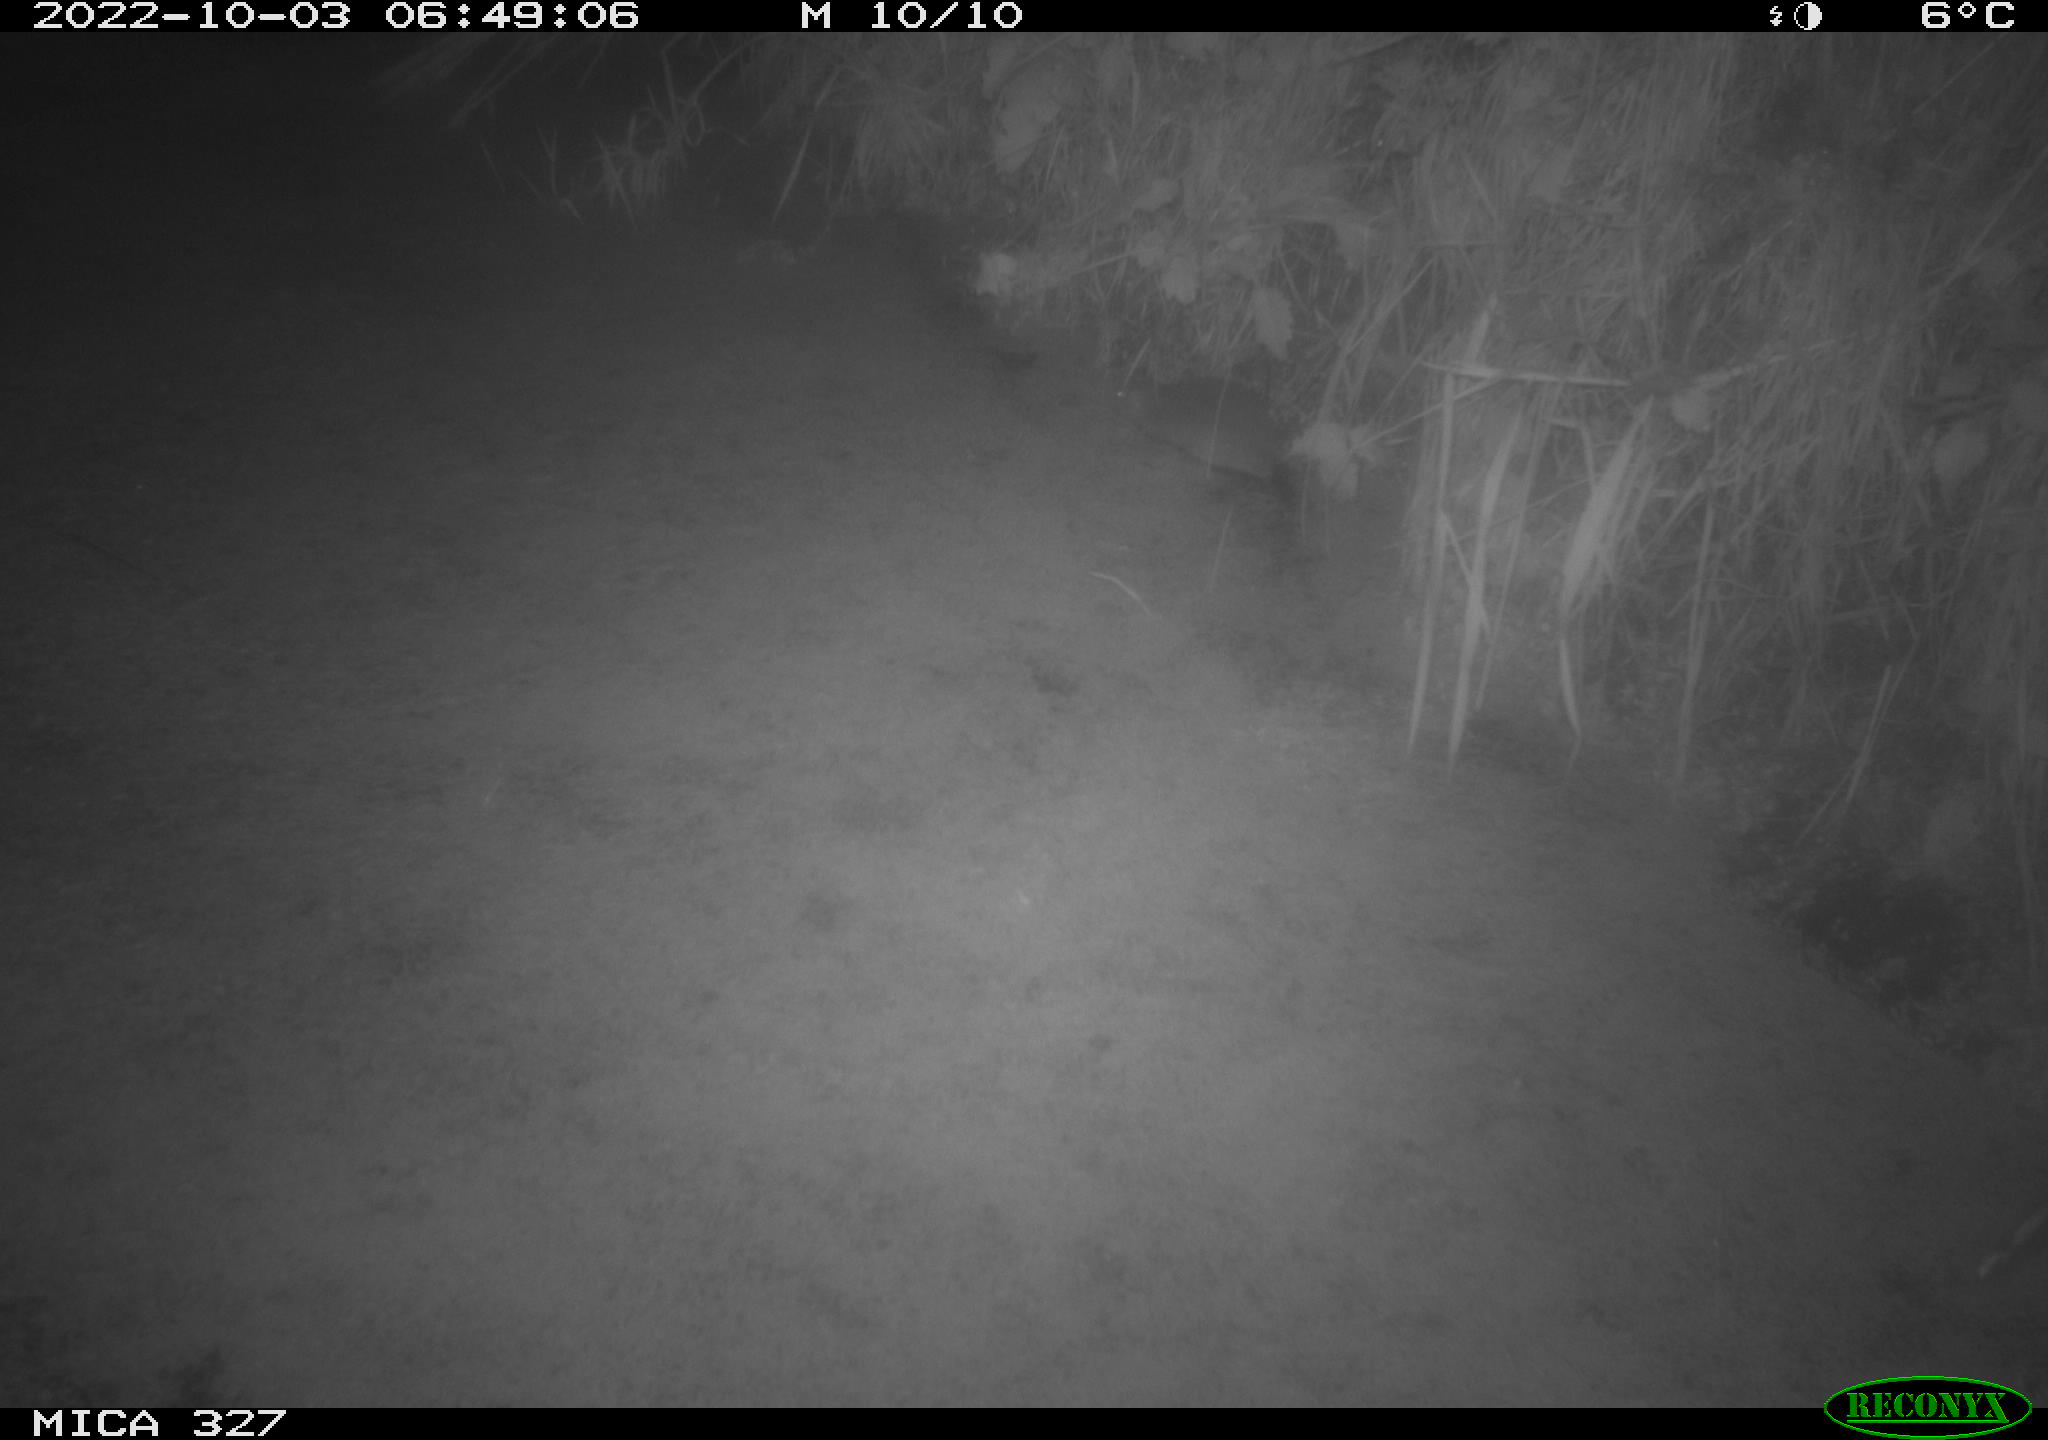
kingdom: Animalia
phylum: Chordata
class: Mammalia
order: Rodentia
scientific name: Rodentia
